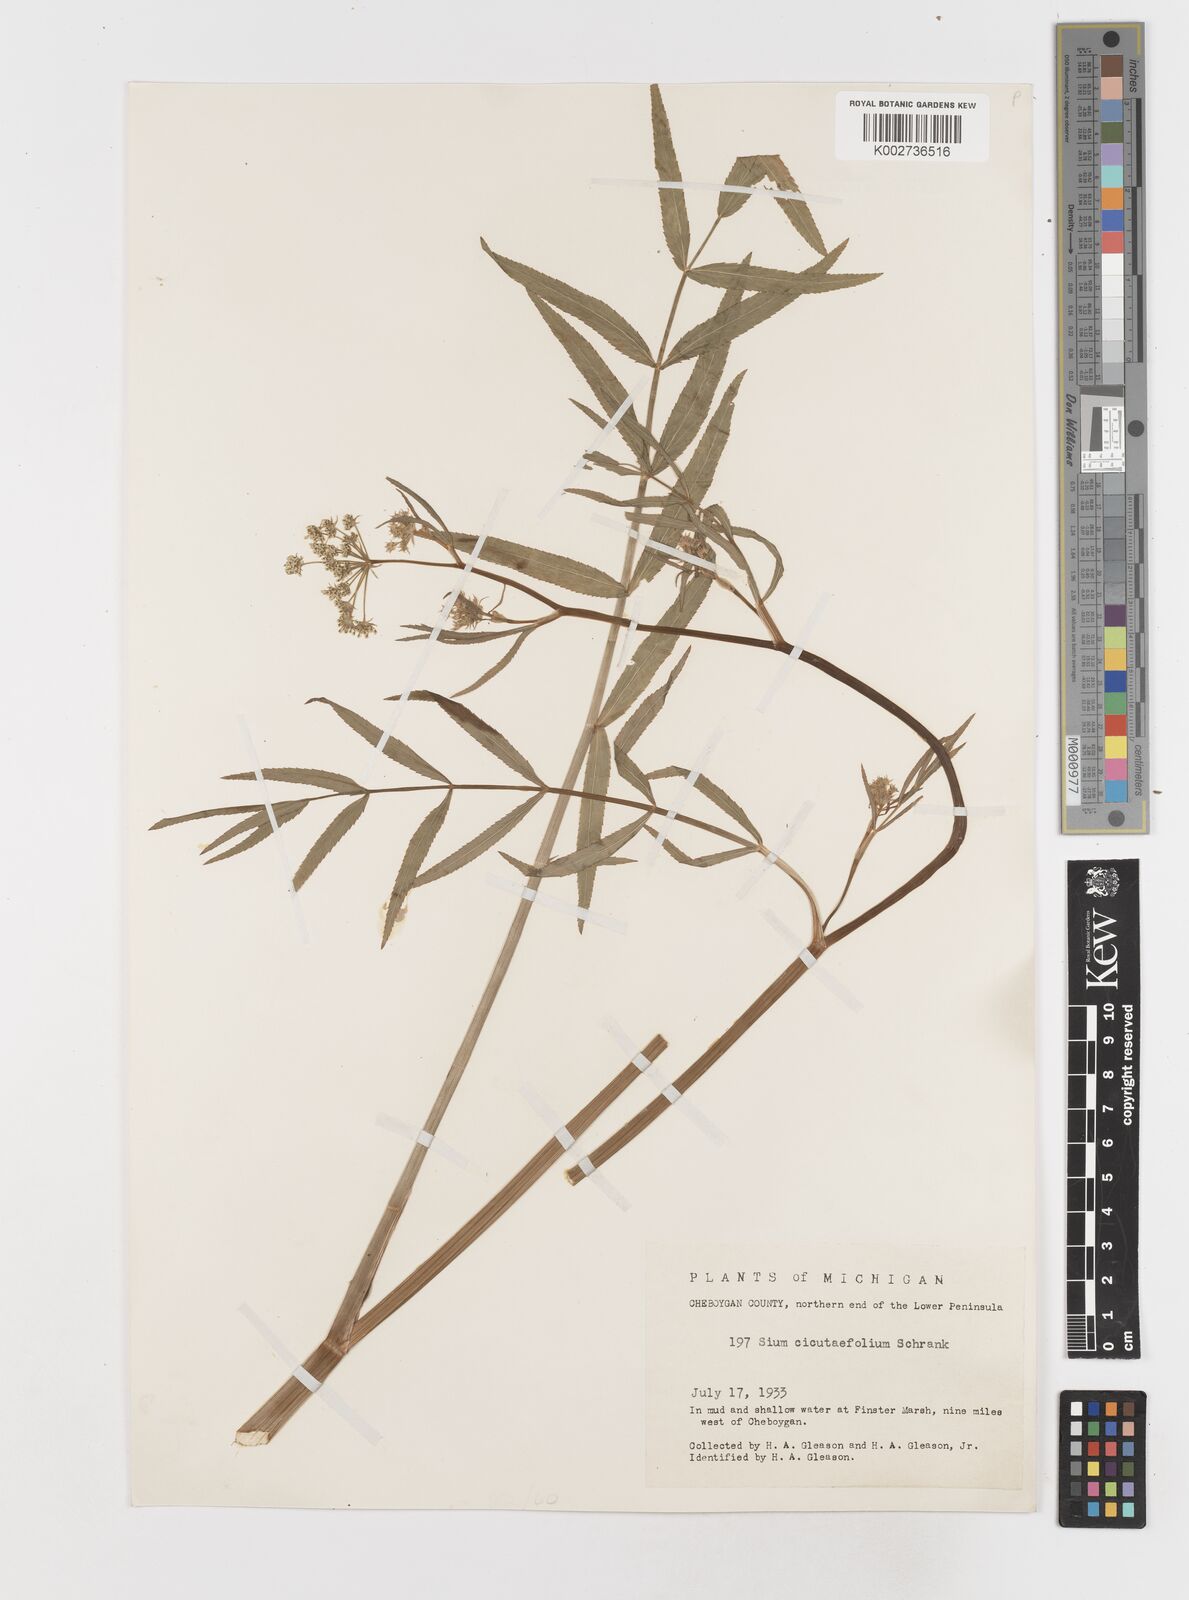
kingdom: Plantae
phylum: Tracheophyta
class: Magnoliopsida
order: Apiales
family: Apiaceae
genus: Sium
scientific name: Sium suave
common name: Hemlock water-parsnip
